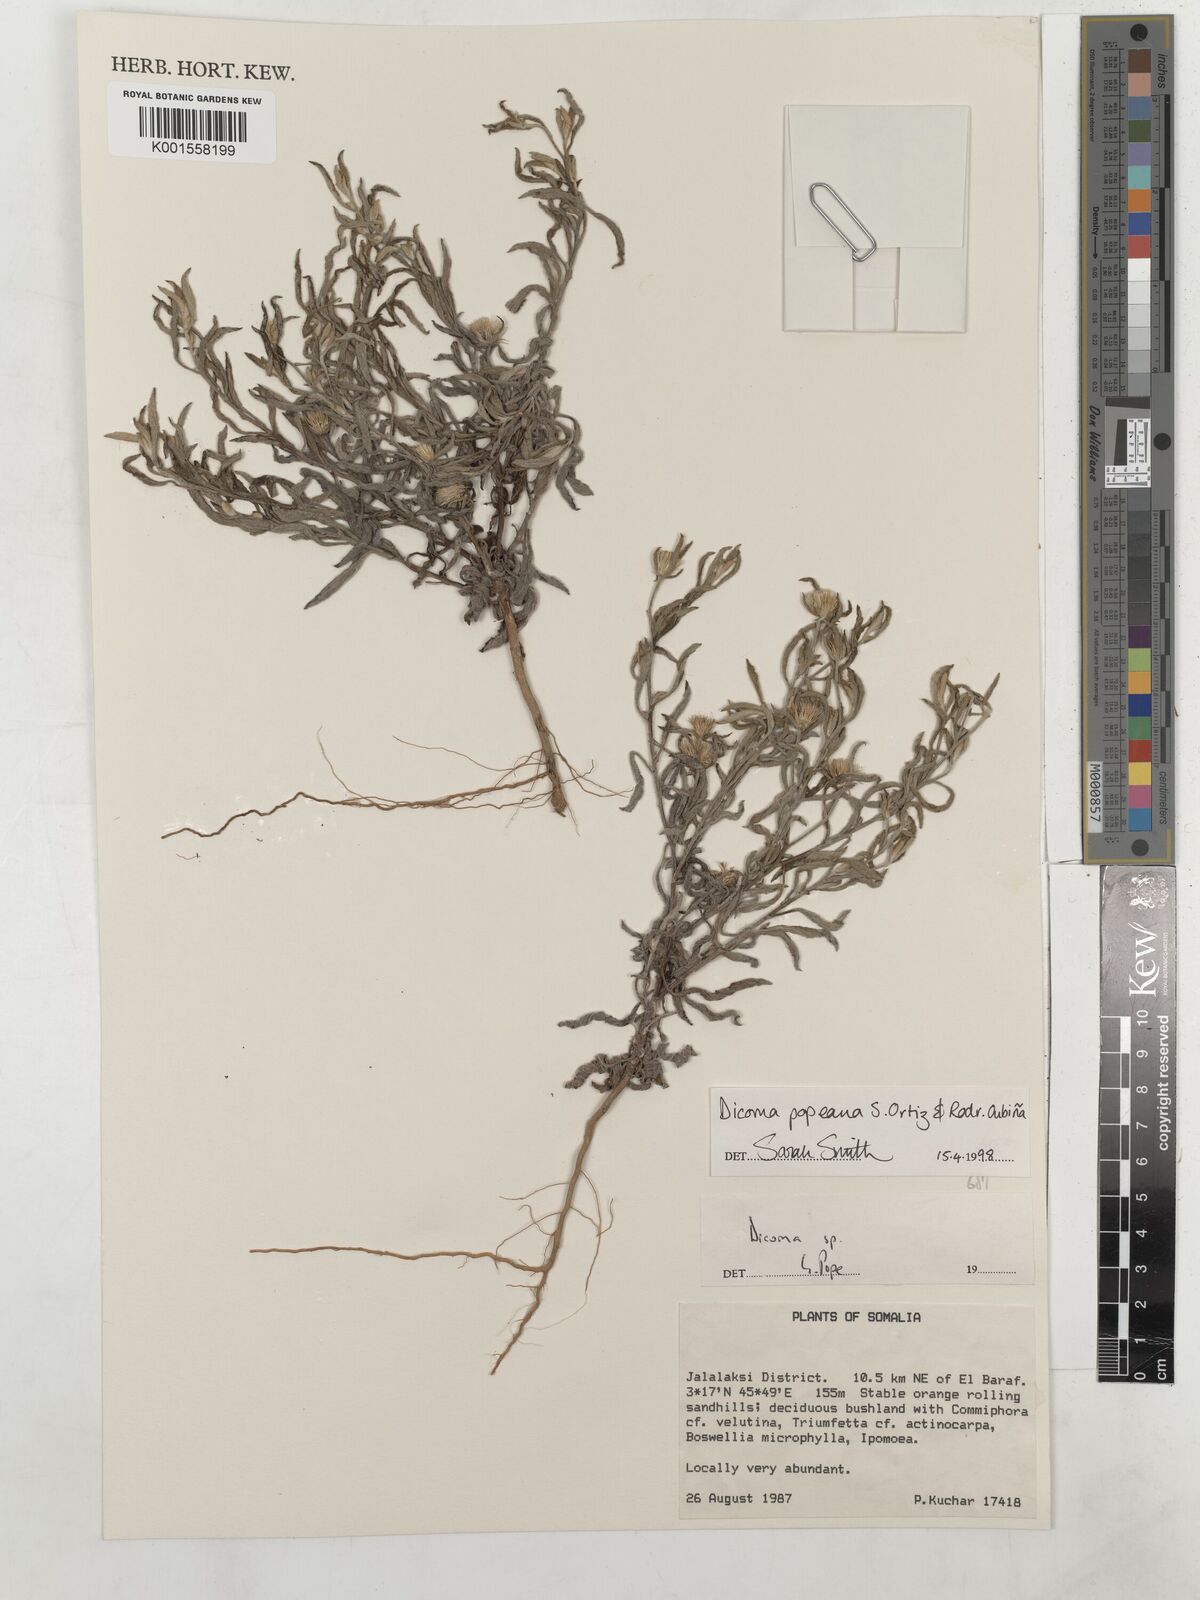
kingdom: Plantae
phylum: Tracheophyta
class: Magnoliopsida
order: Asterales
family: Asteraceae
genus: Dicoma
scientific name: Dicoma popeana
